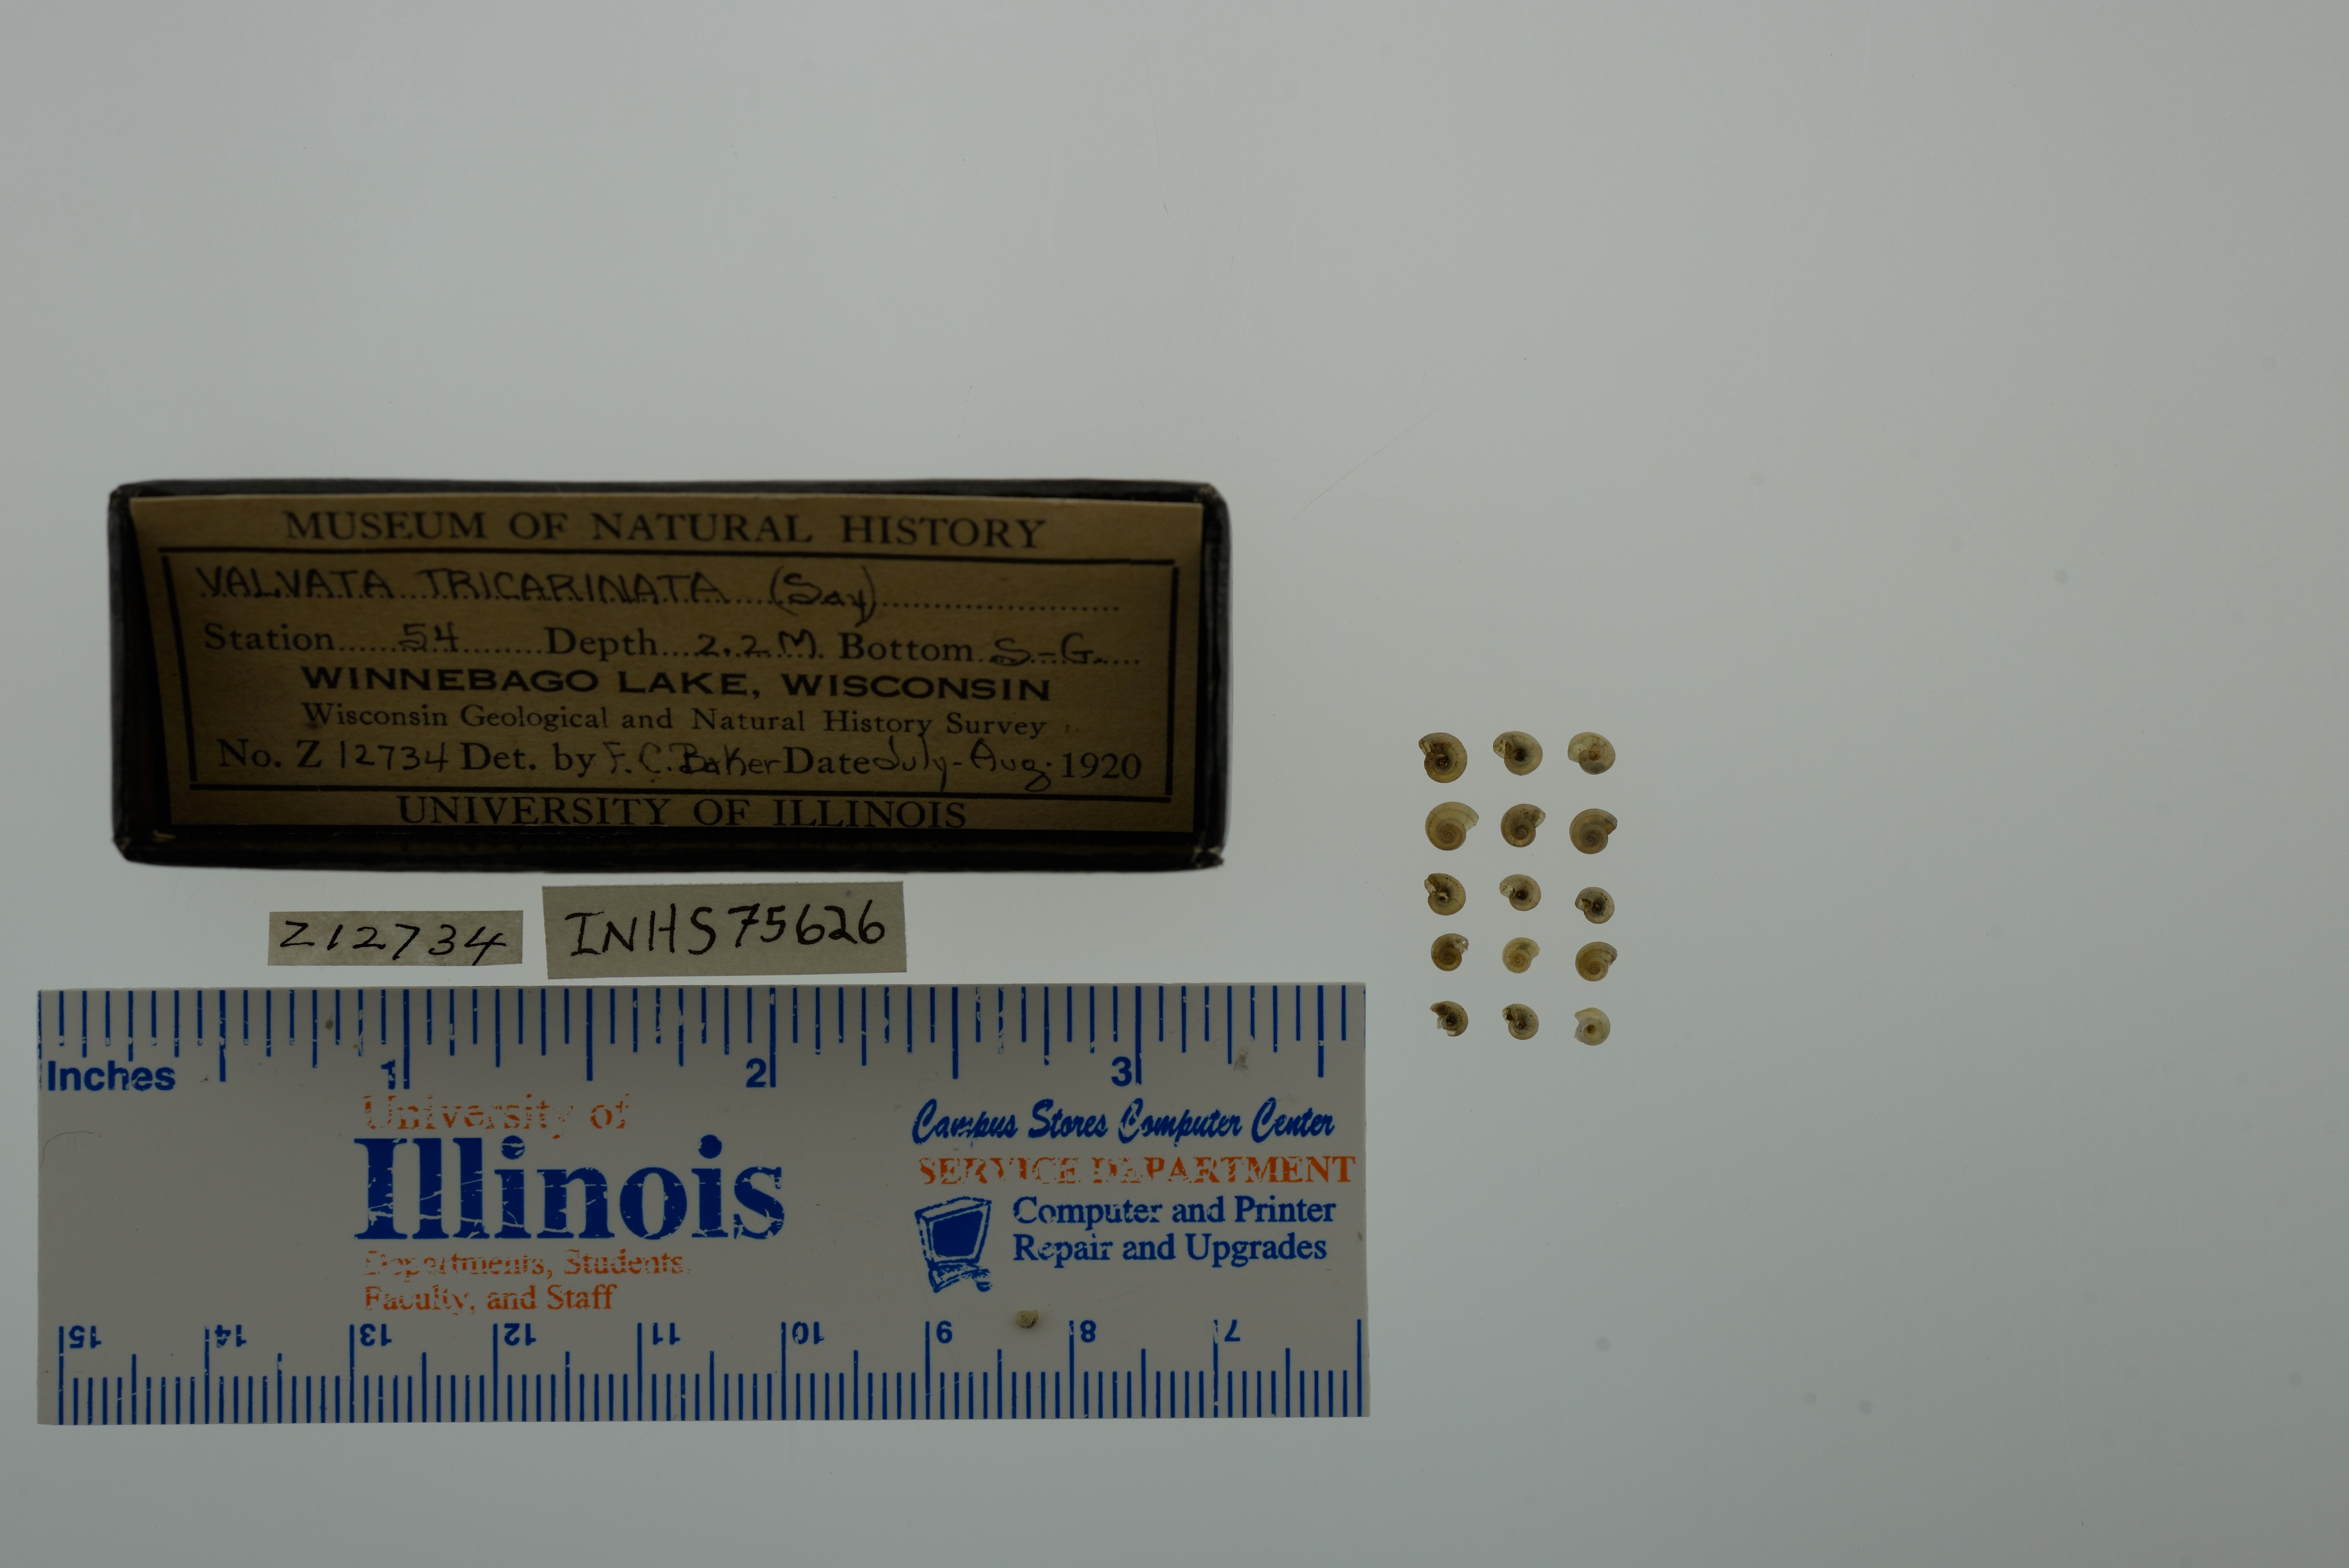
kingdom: Animalia
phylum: Mollusca
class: Gastropoda
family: Valvatidae
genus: Valvata
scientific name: Valvata tricarinata
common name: Three-ridge valvata
